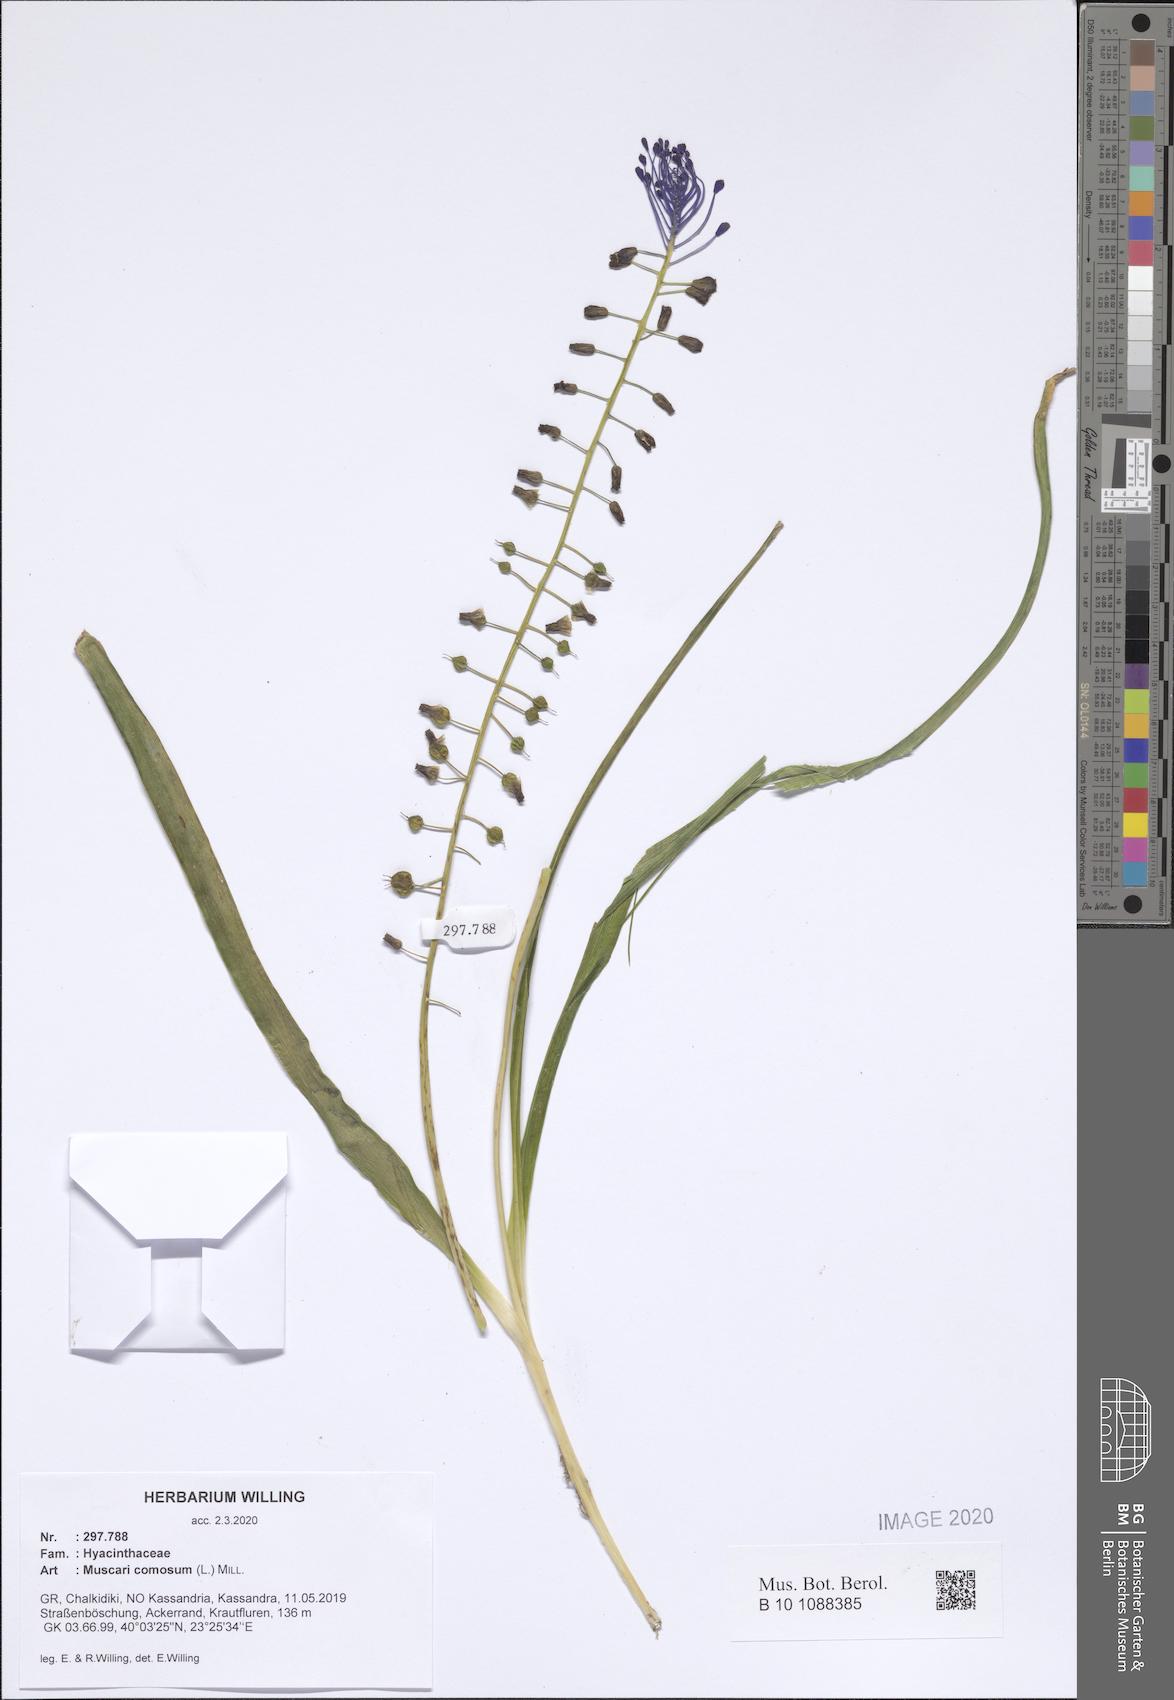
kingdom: Plantae
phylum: Tracheophyta
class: Liliopsida
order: Asparagales
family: Asparagaceae
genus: Muscari
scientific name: Muscari comosum
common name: Tassel hyacinth
